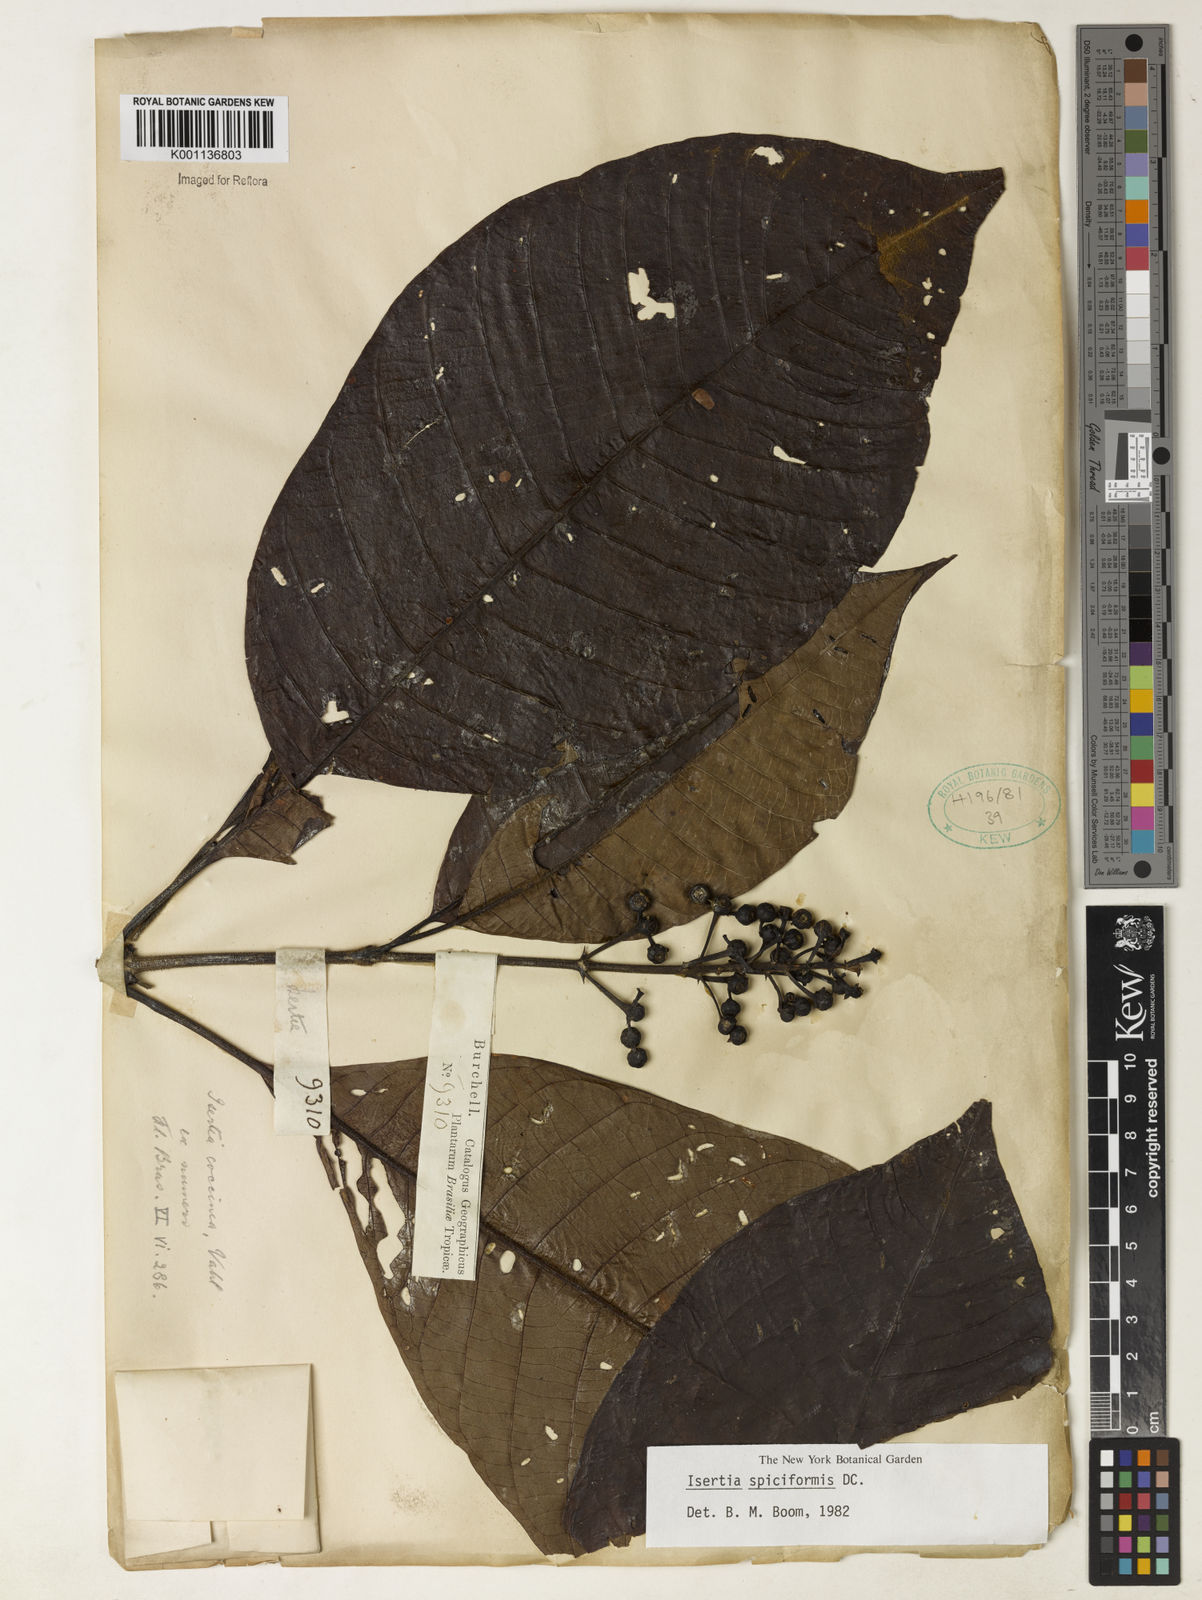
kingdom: Plantae
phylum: Tracheophyta
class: Magnoliopsida
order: Gentianales
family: Rubiaceae
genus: Isertia
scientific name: Isertia spiciformis
